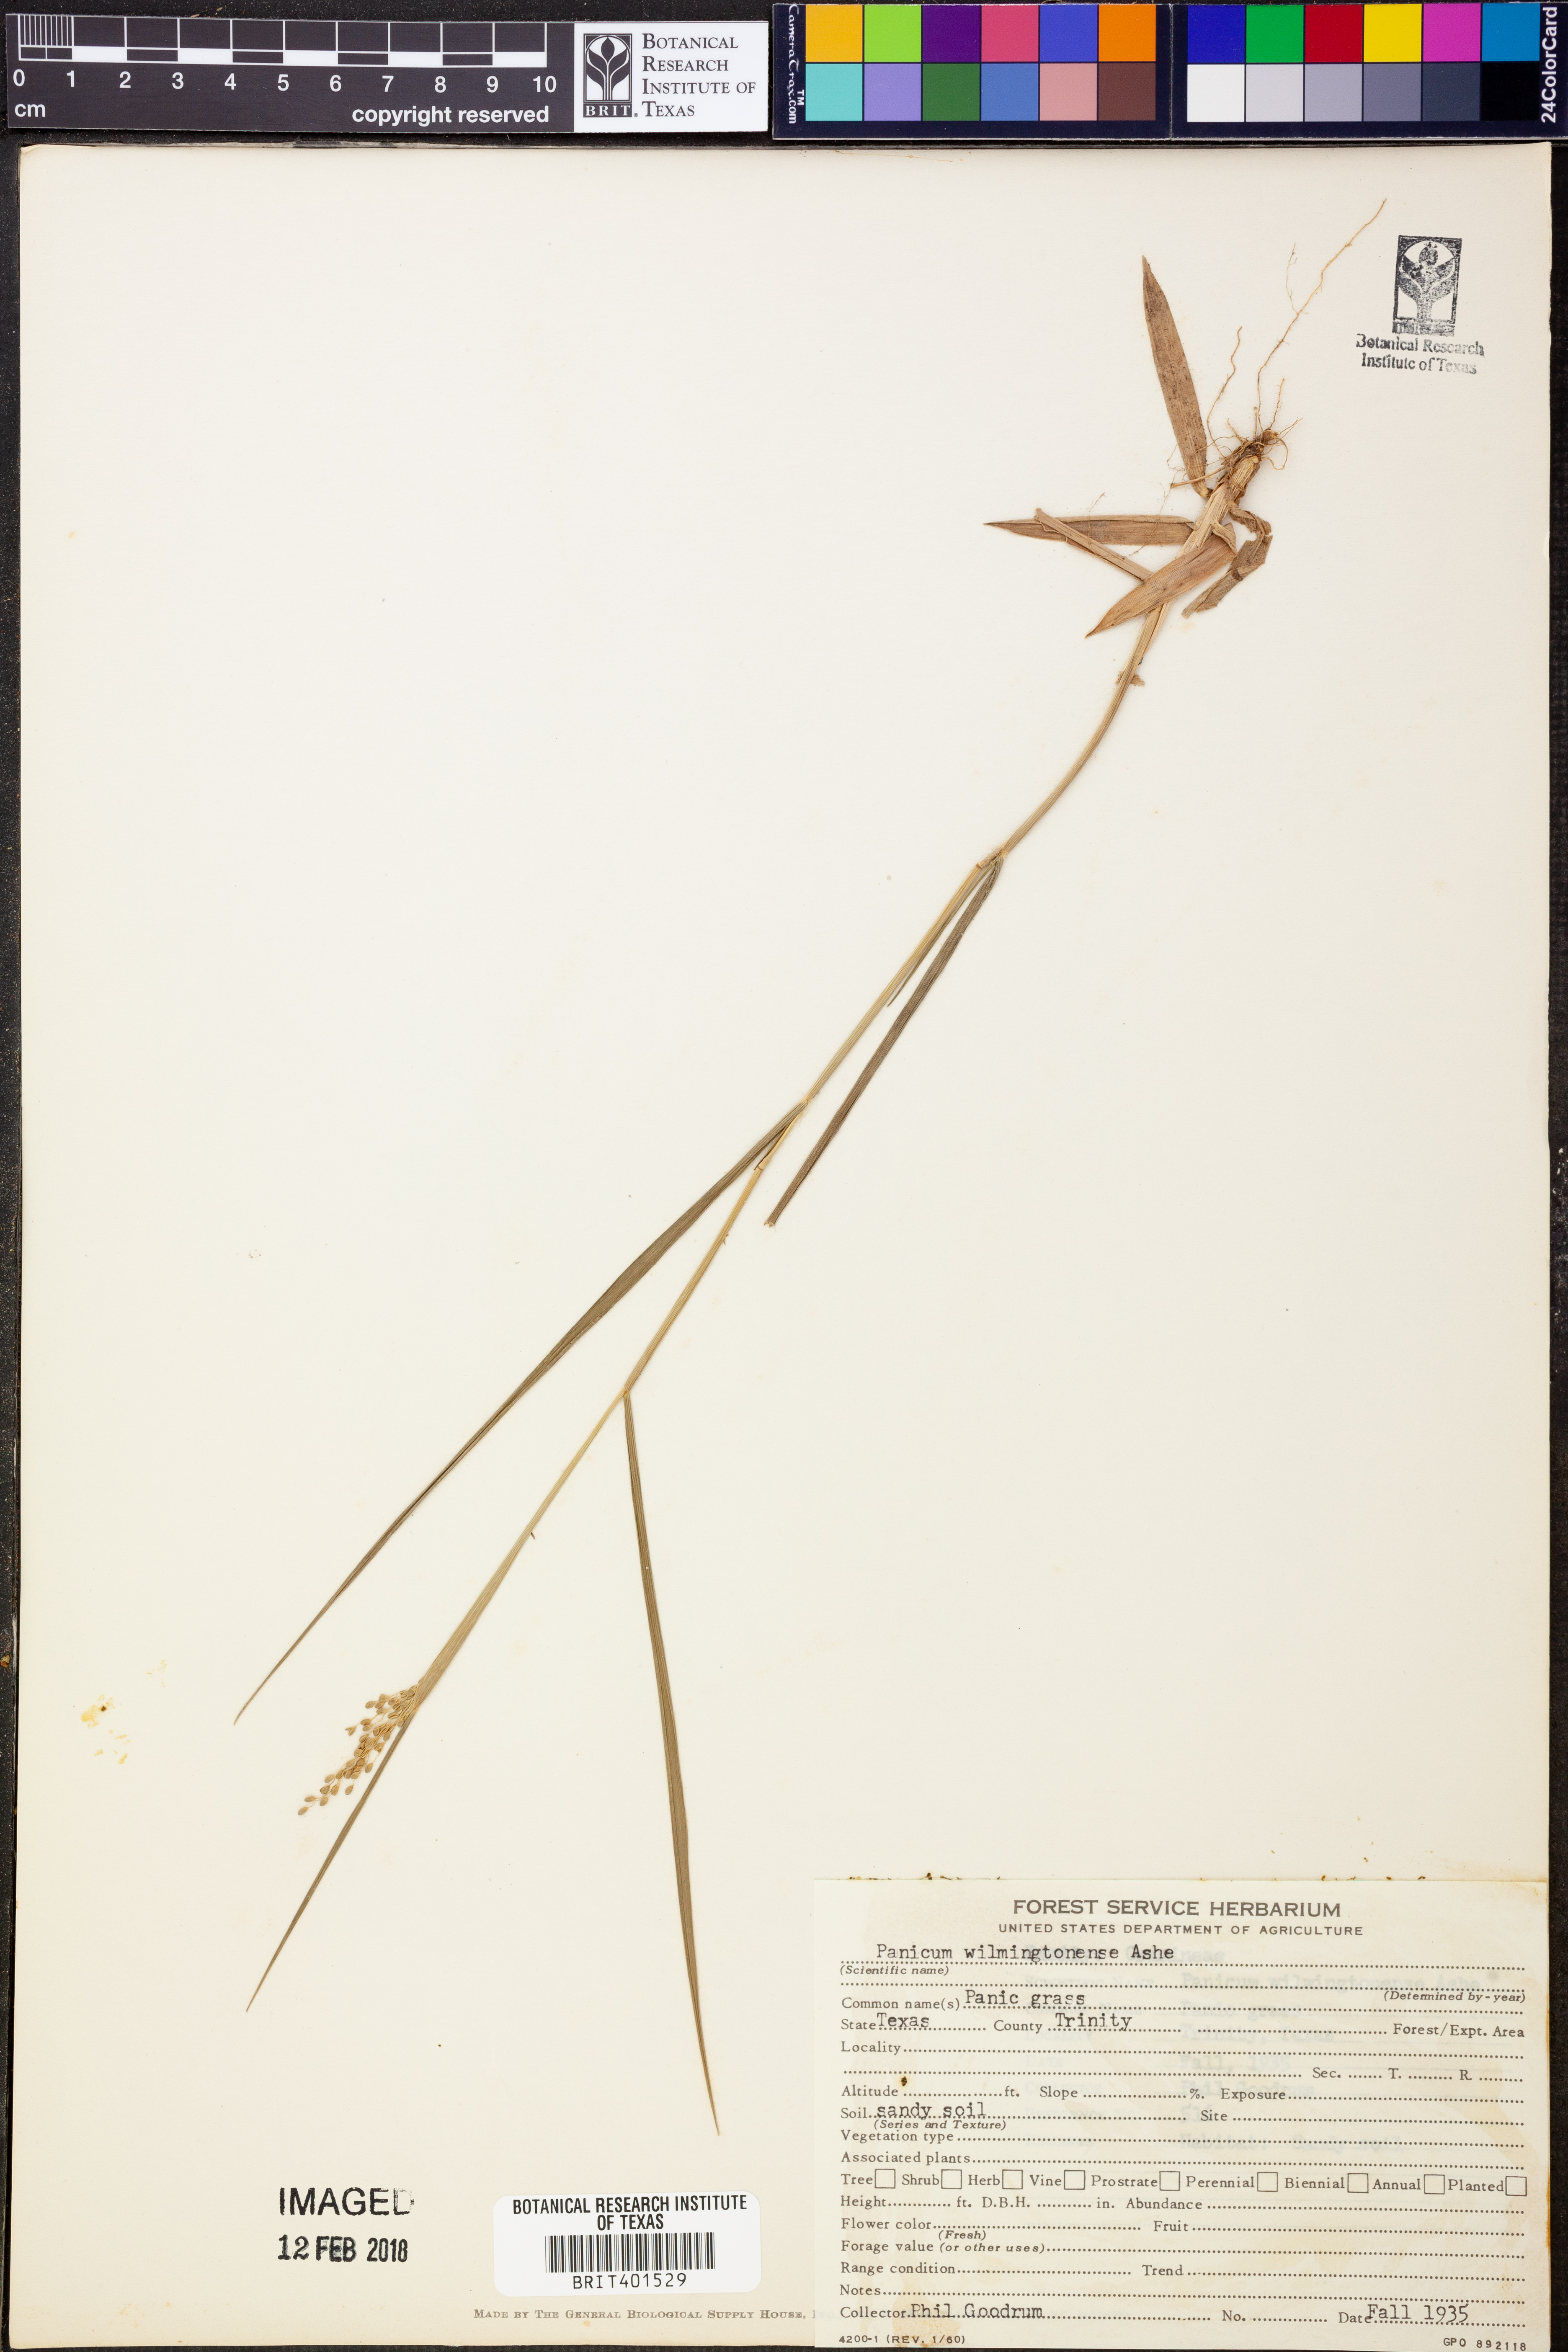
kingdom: Plantae
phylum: Tracheophyta
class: Liliopsida
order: Poales
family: Poaceae
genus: Dichanthelium
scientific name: Dichanthelium wilmingtonense
